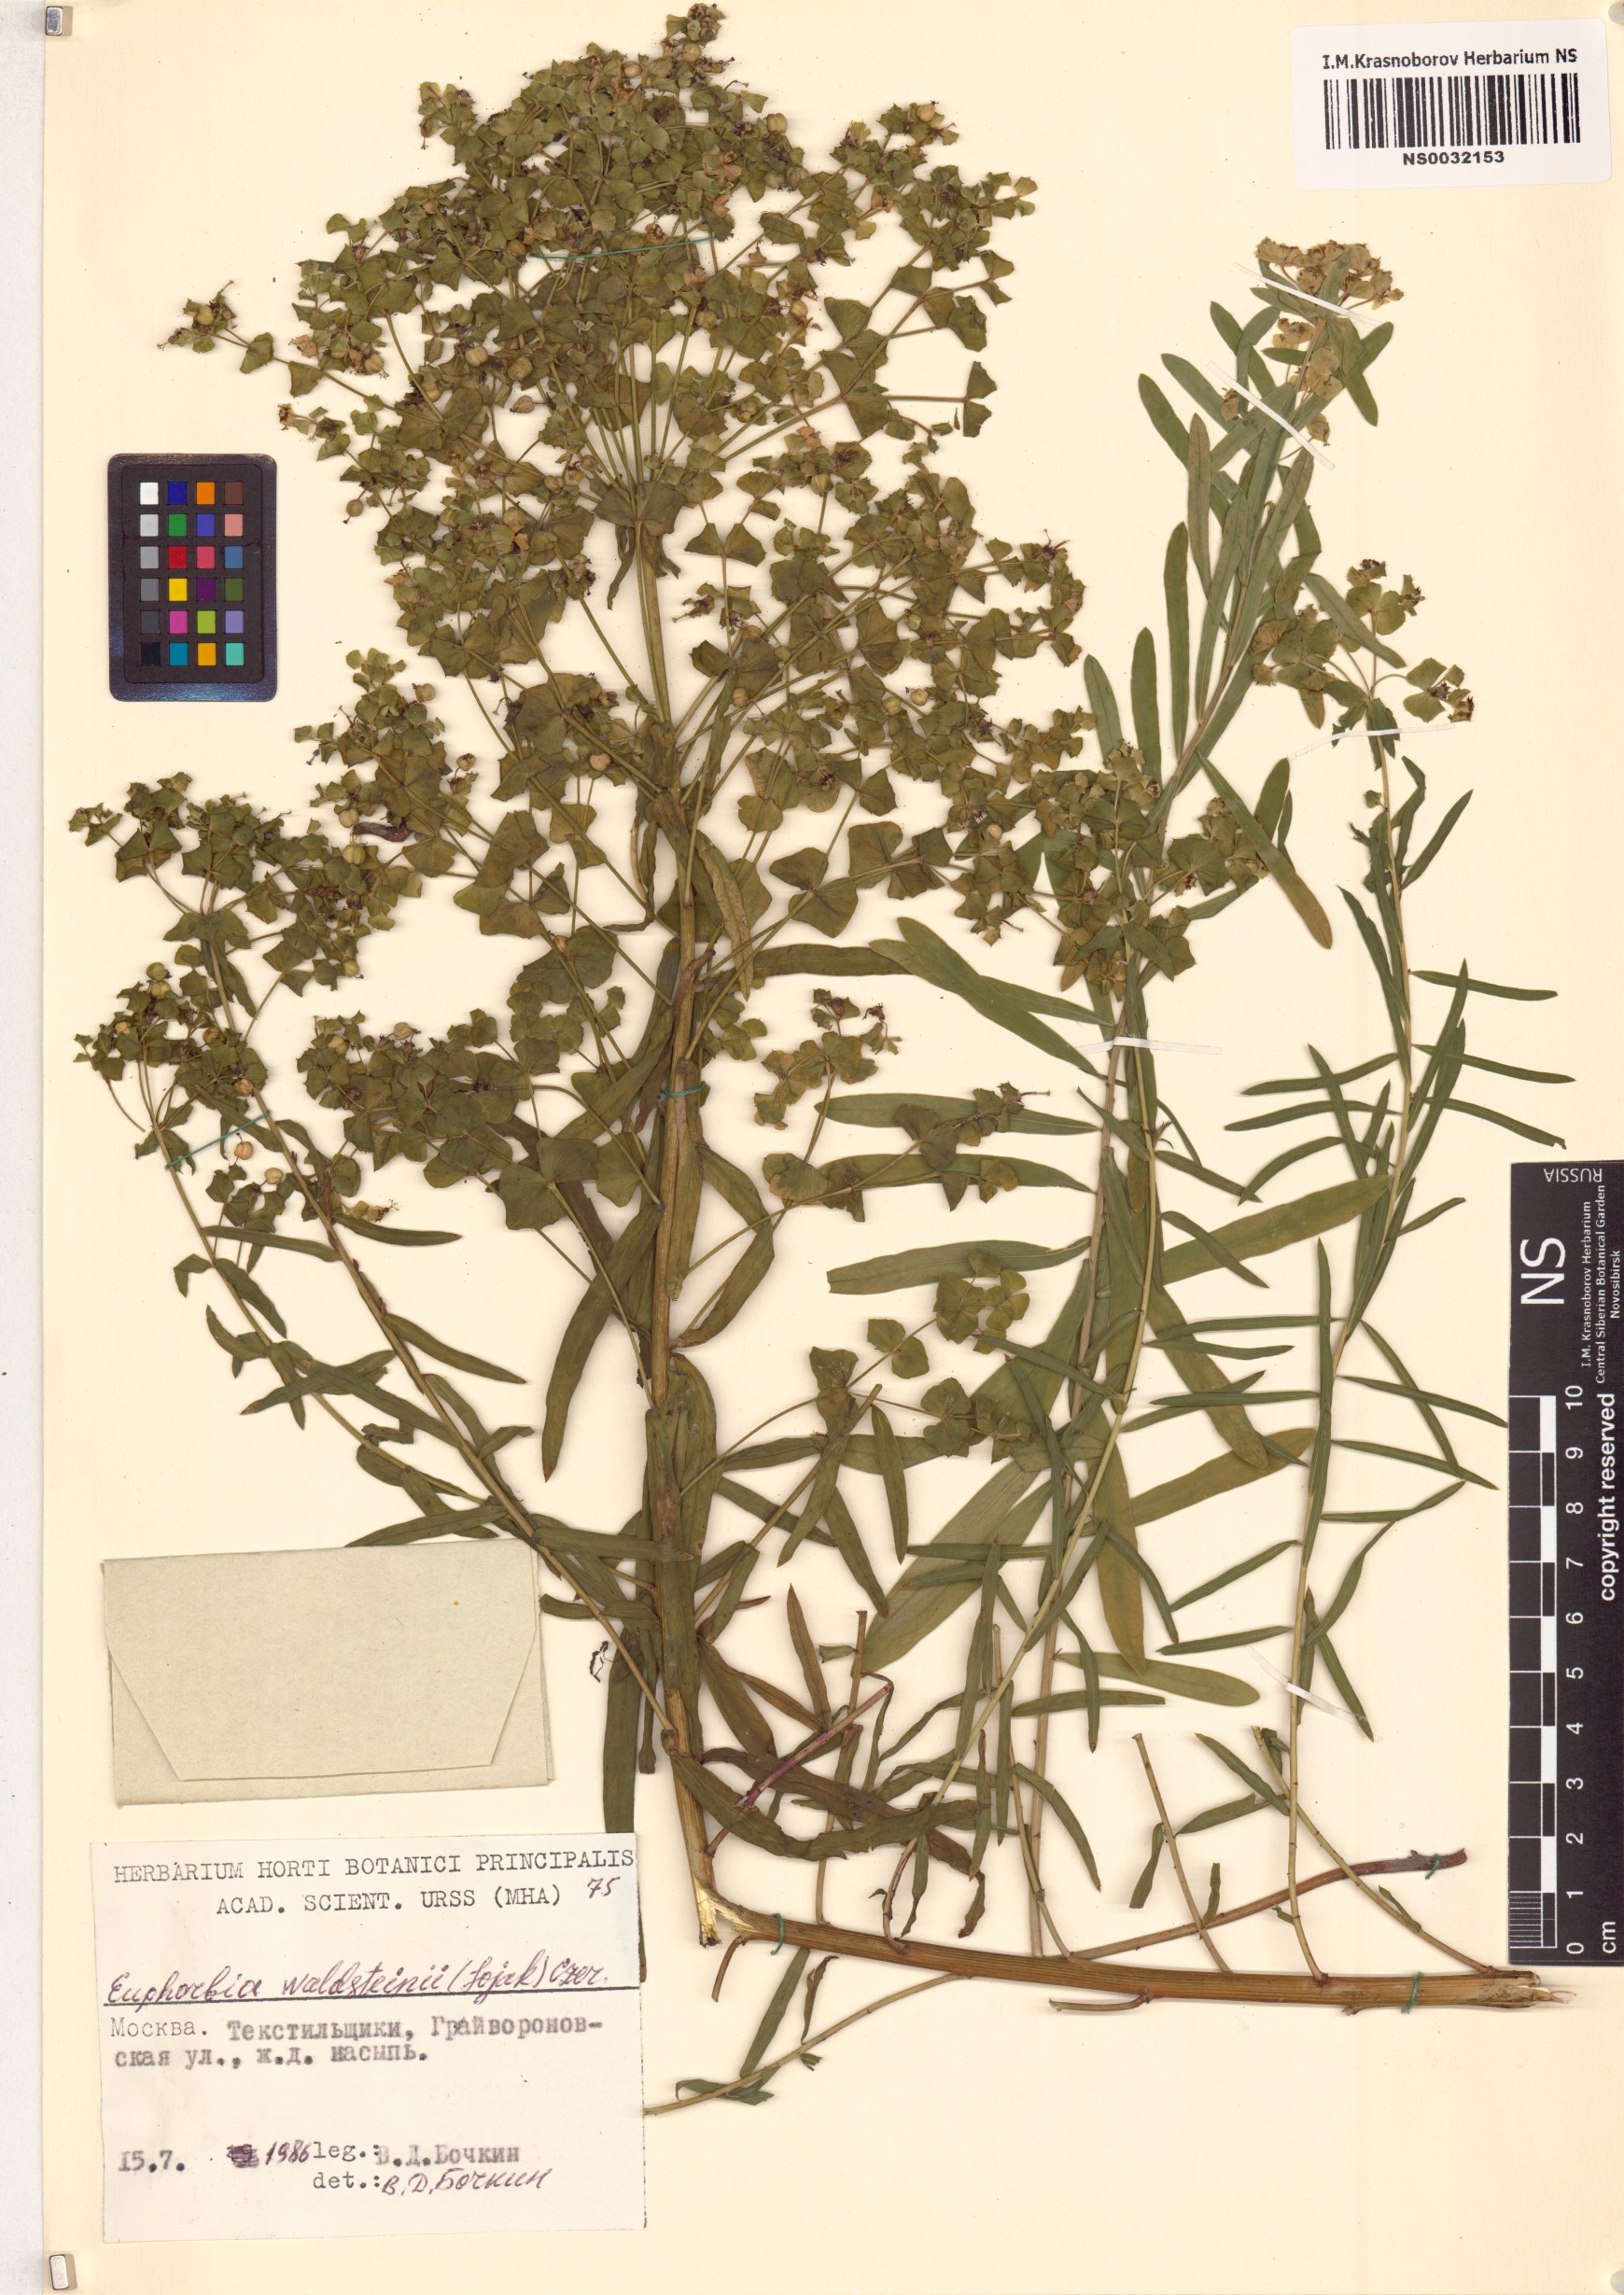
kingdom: Plantae
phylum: Tracheophyta
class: Magnoliopsida
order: Malpighiales
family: Euphorbiaceae
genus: Euphorbia
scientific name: Euphorbia virgata
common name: Leafy spurge
